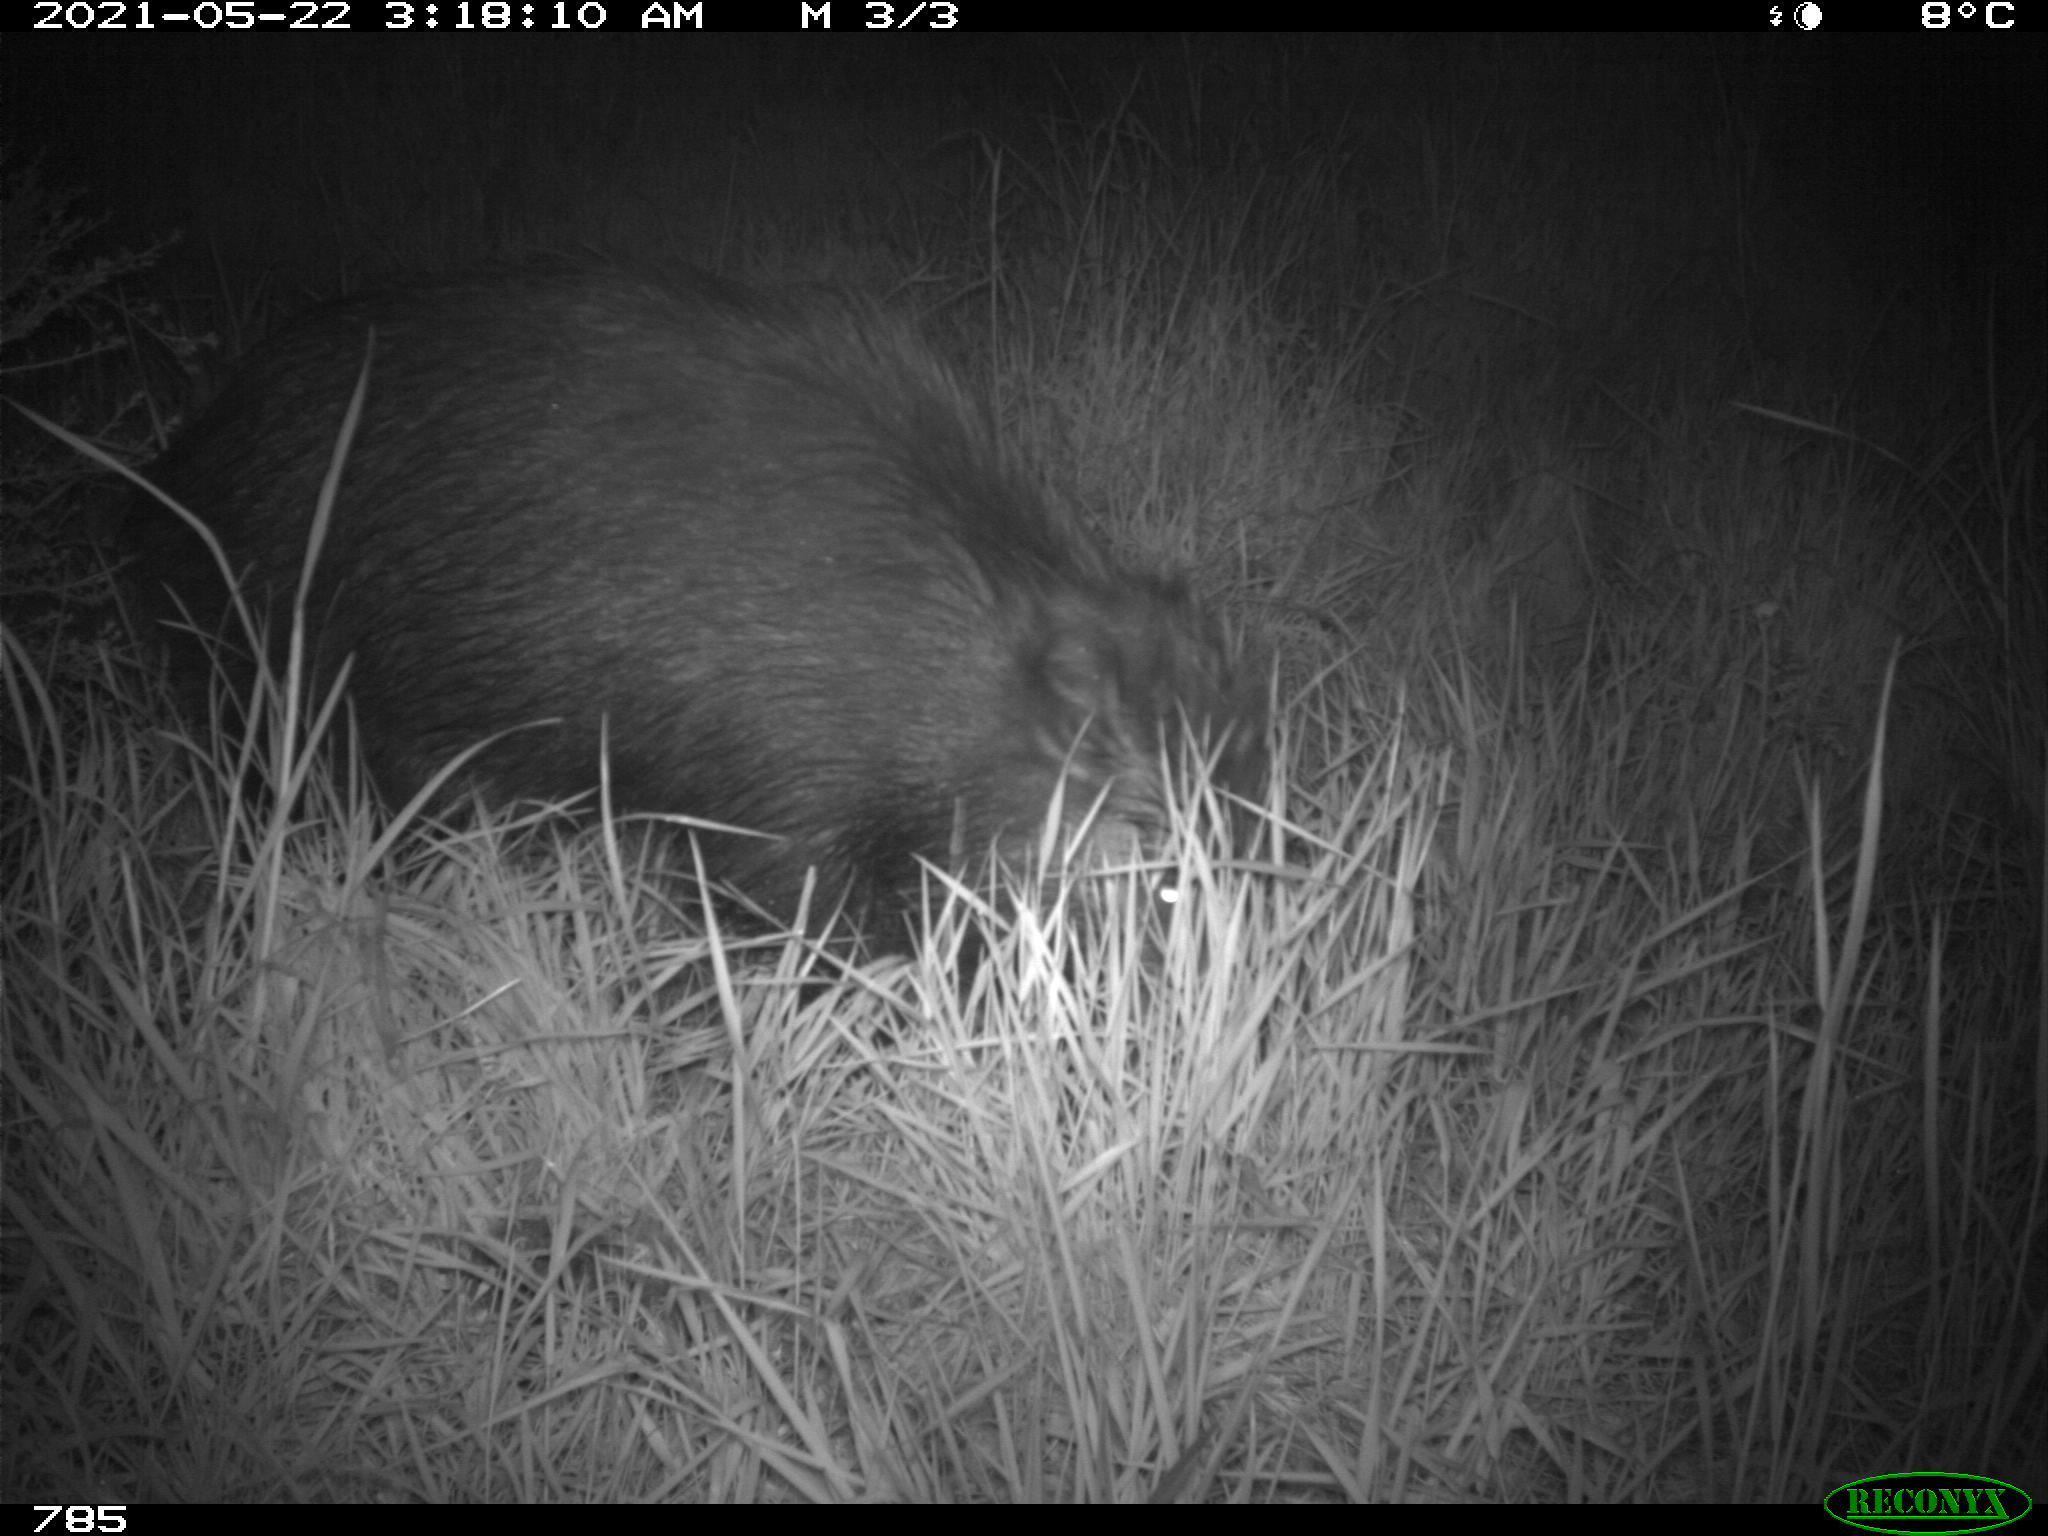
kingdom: Animalia
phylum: Chordata
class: Mammalia
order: Artiodactyla
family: Suidae
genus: Sus
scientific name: Sus scrofa
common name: Wild boar
